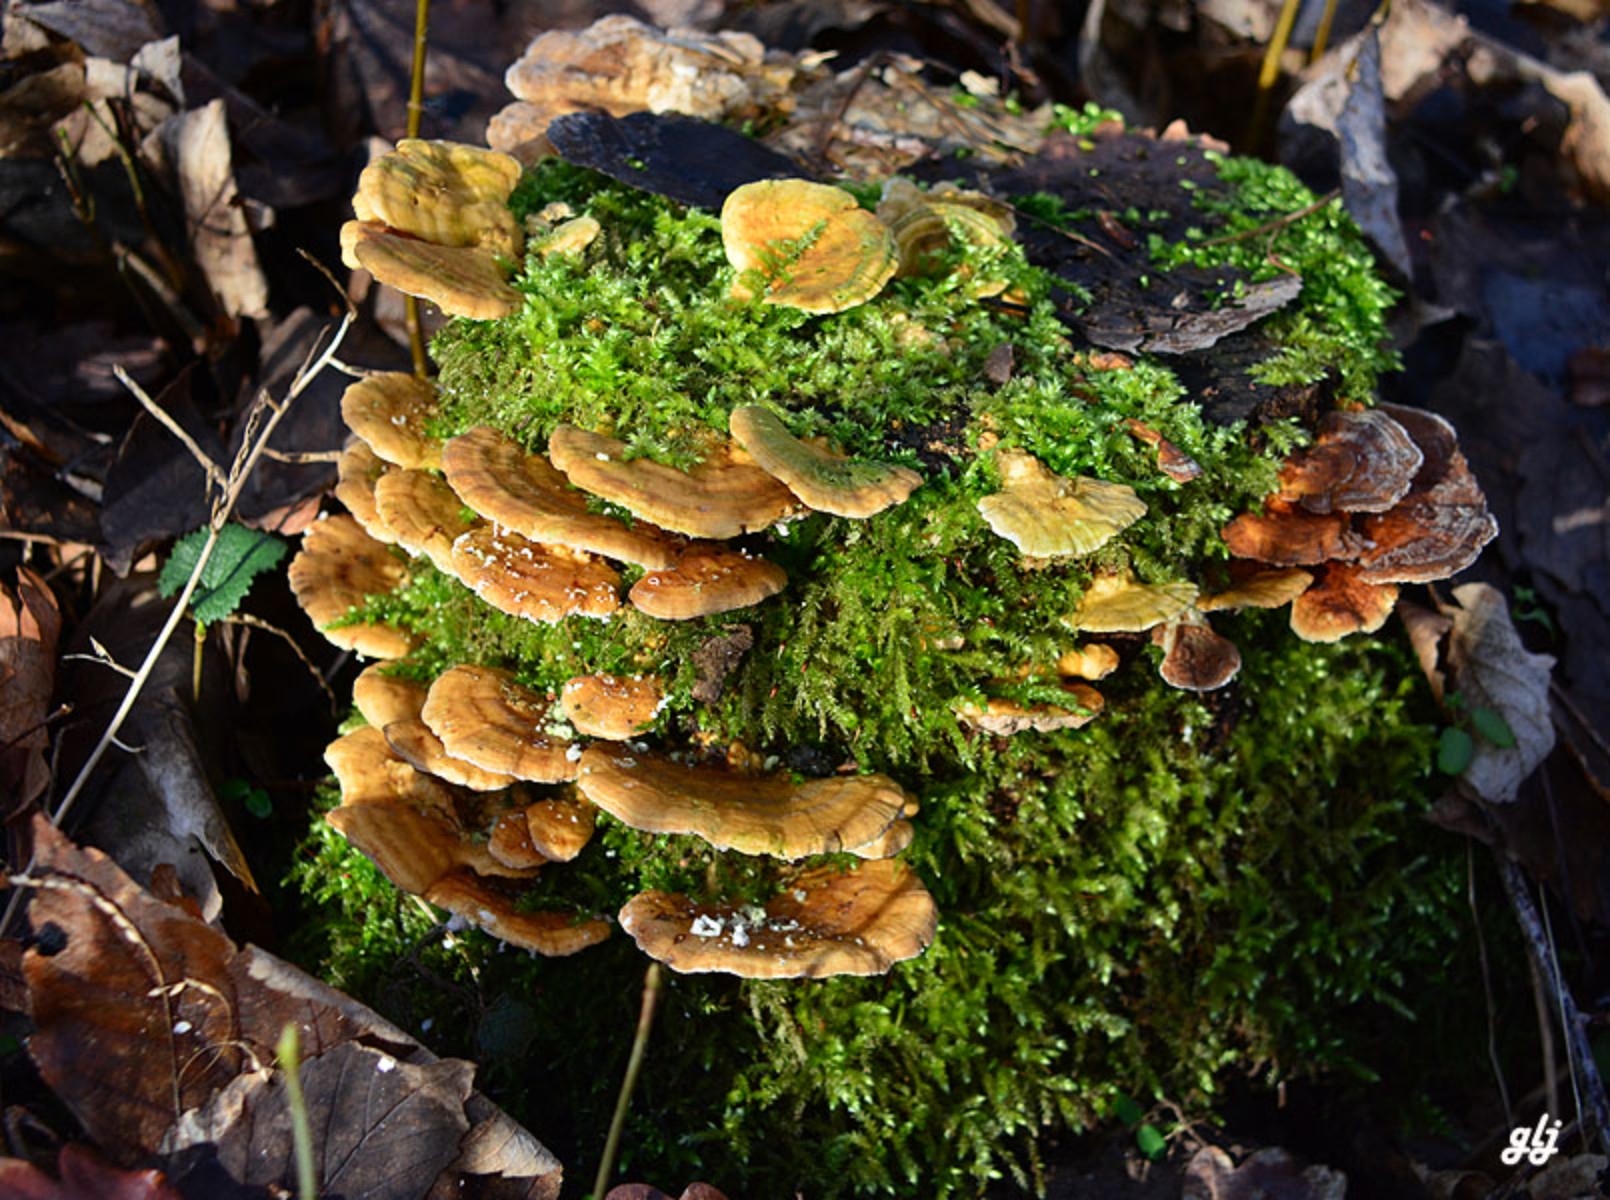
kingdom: Fungi
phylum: Basidiomycota
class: Agaricomycetes
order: Polyporales
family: Polyporaceae
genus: Trametes
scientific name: Trametes versicolor
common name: broget læderporesvamp
